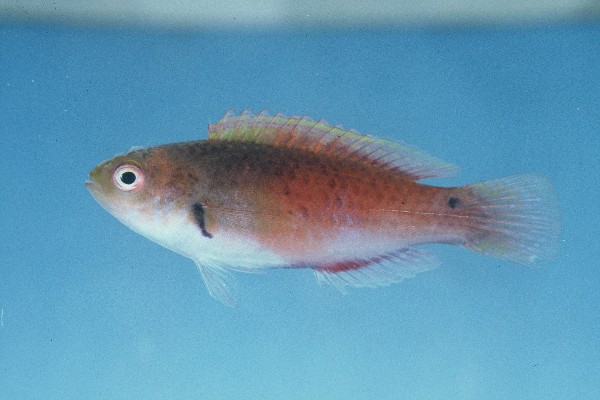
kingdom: Animalia
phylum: Chordata
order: Perciformes
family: Labridae
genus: Cirrhilabrus
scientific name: Cirrhilabrus cyanopleura
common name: Coralline wrasse
